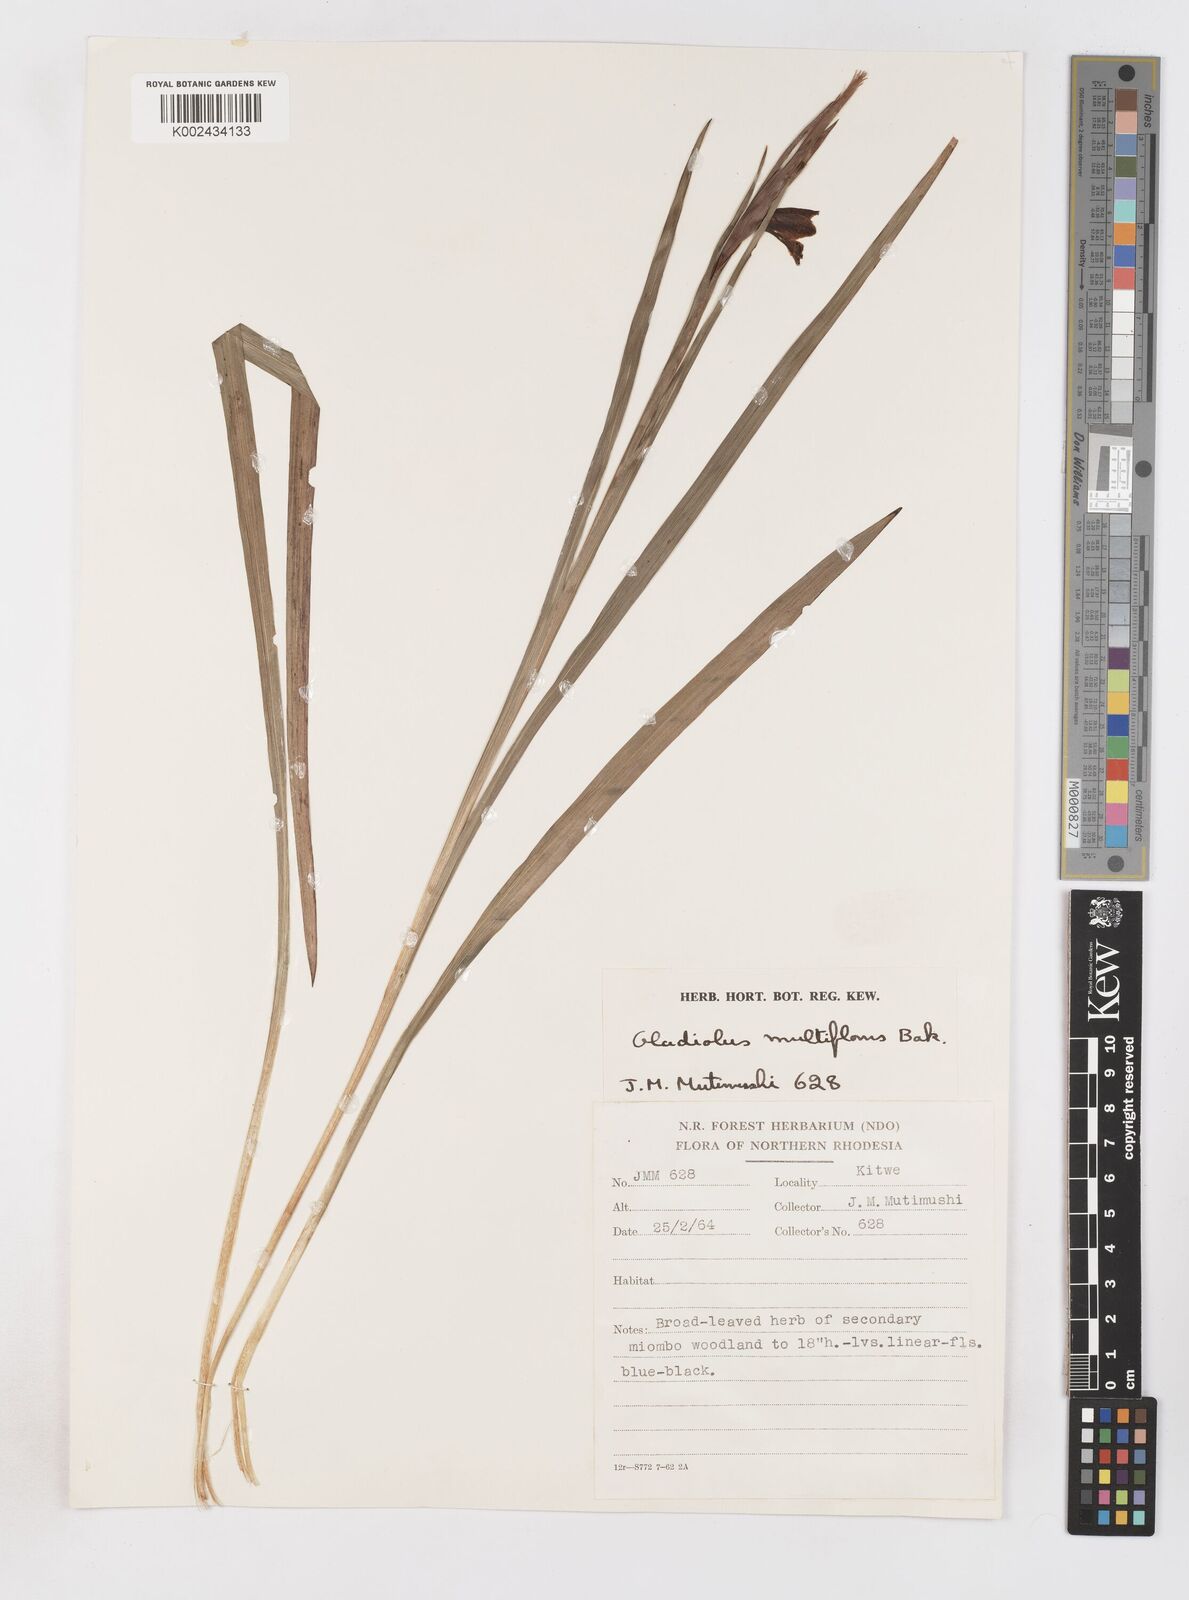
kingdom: Plantae
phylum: Tracheophyta
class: Liliopsida
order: Asparagales
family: Iridaceae
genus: Gladiolus
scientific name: Gladiolus gregarius
